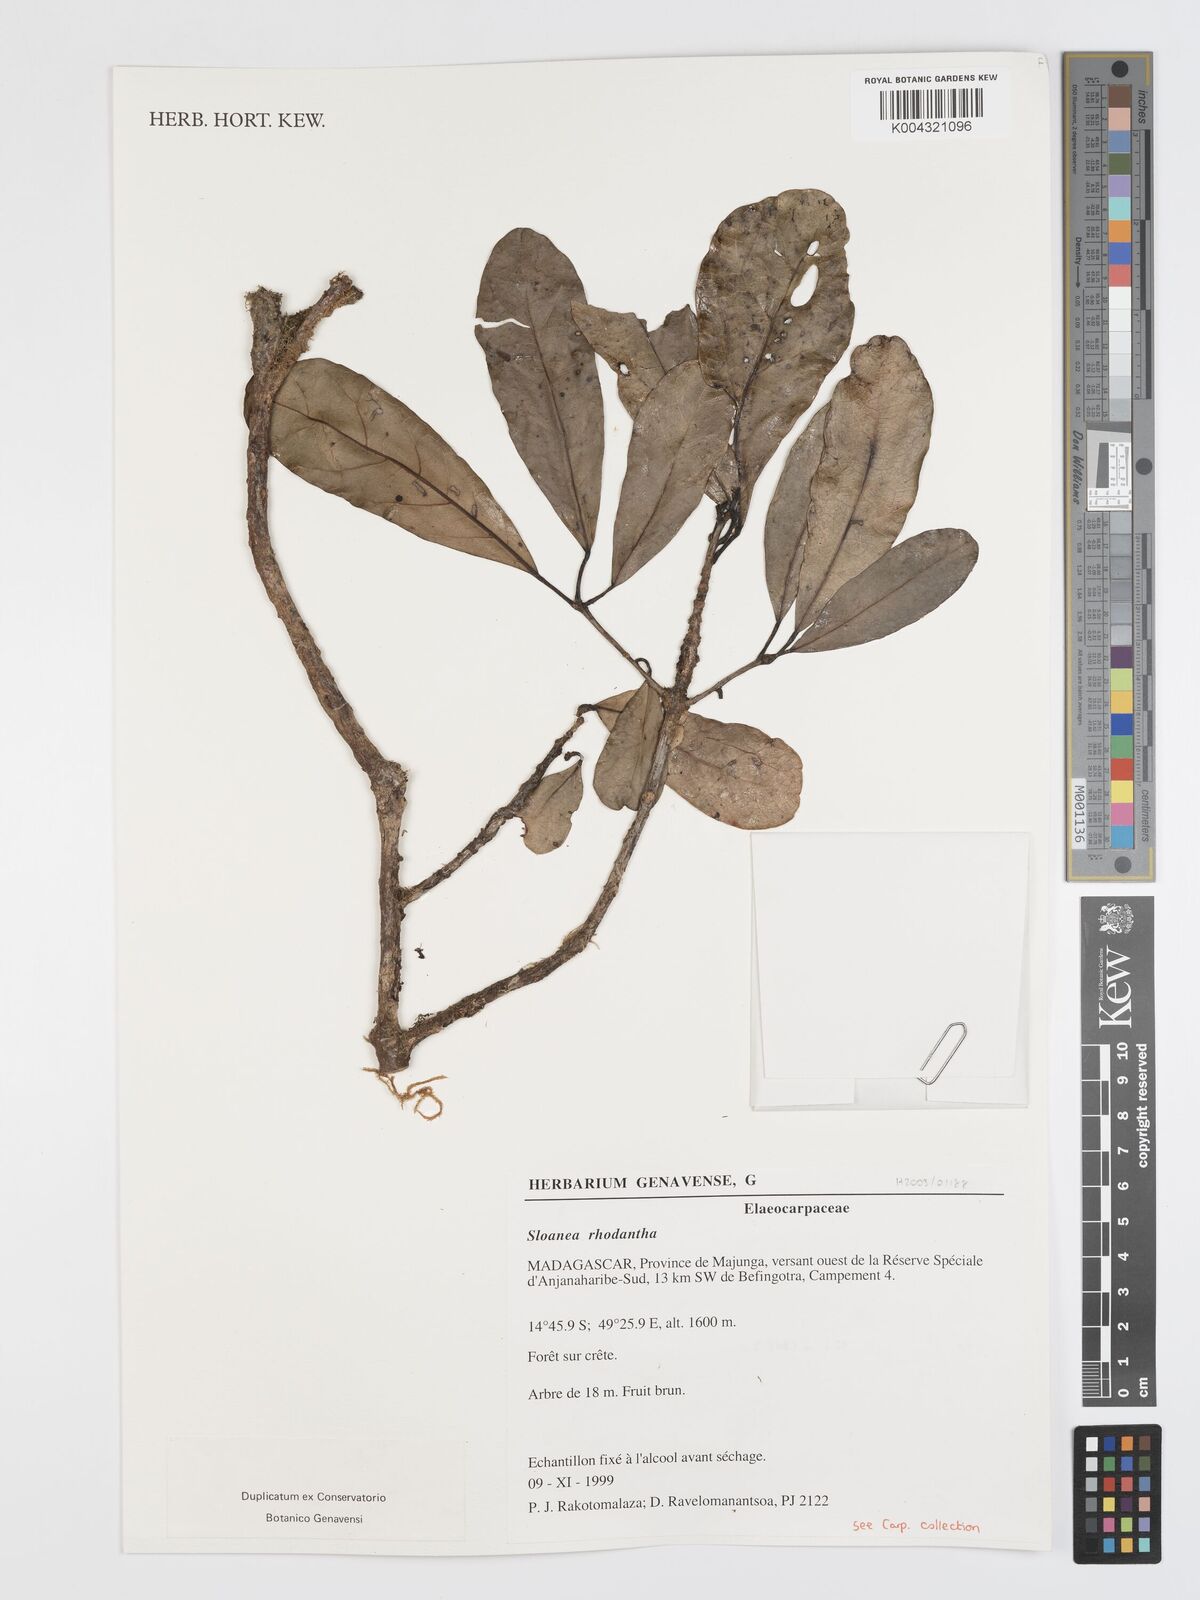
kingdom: Plantae
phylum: Tracheophyta
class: Magnoliopsida
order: Oxalidales
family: Elaeocarpaceae
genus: Sloanea
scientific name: Sloanea rhodantha
